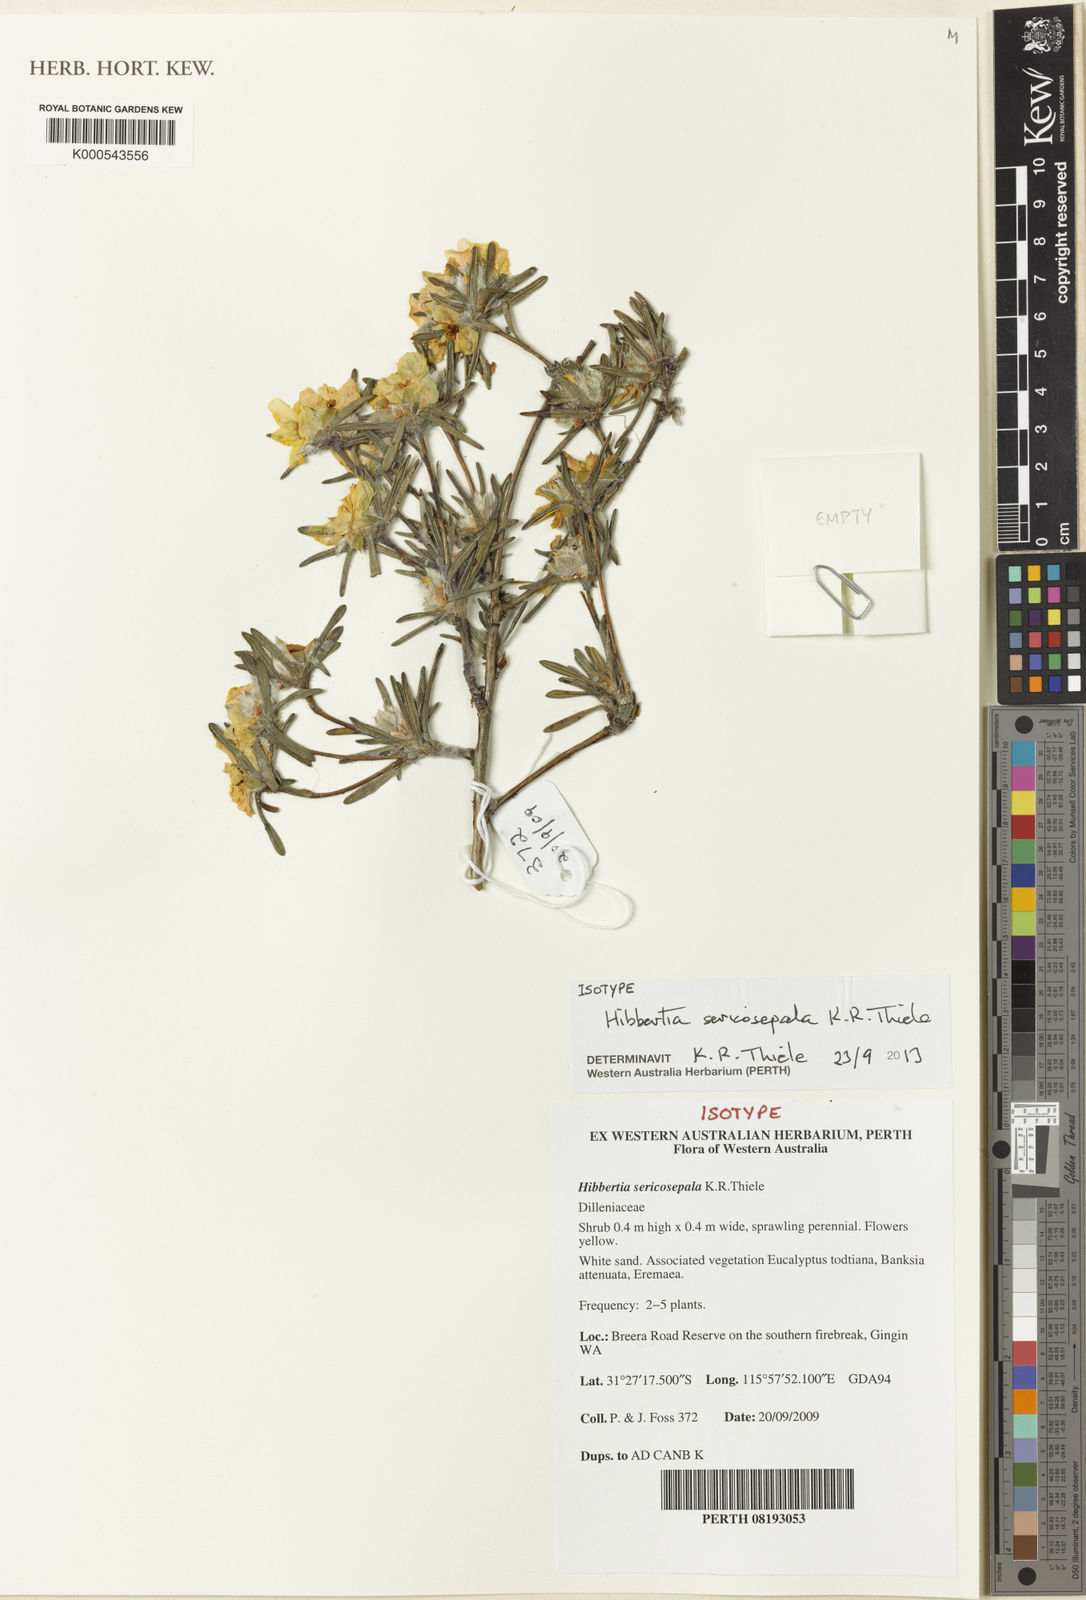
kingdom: Plantae
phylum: Tracheophyta
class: Magnoliopsida
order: Dilleniales
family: Dilleniaceae
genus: Hibbertia
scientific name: Hibbertia sericosepala
